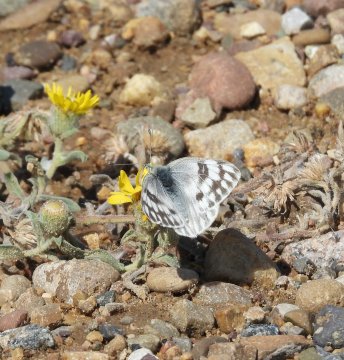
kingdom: Animalia
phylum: Arthropoda
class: Insecta
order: Lepidoptera
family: Pieridae
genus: Pontia
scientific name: Pontia occidentalis
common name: Western White
